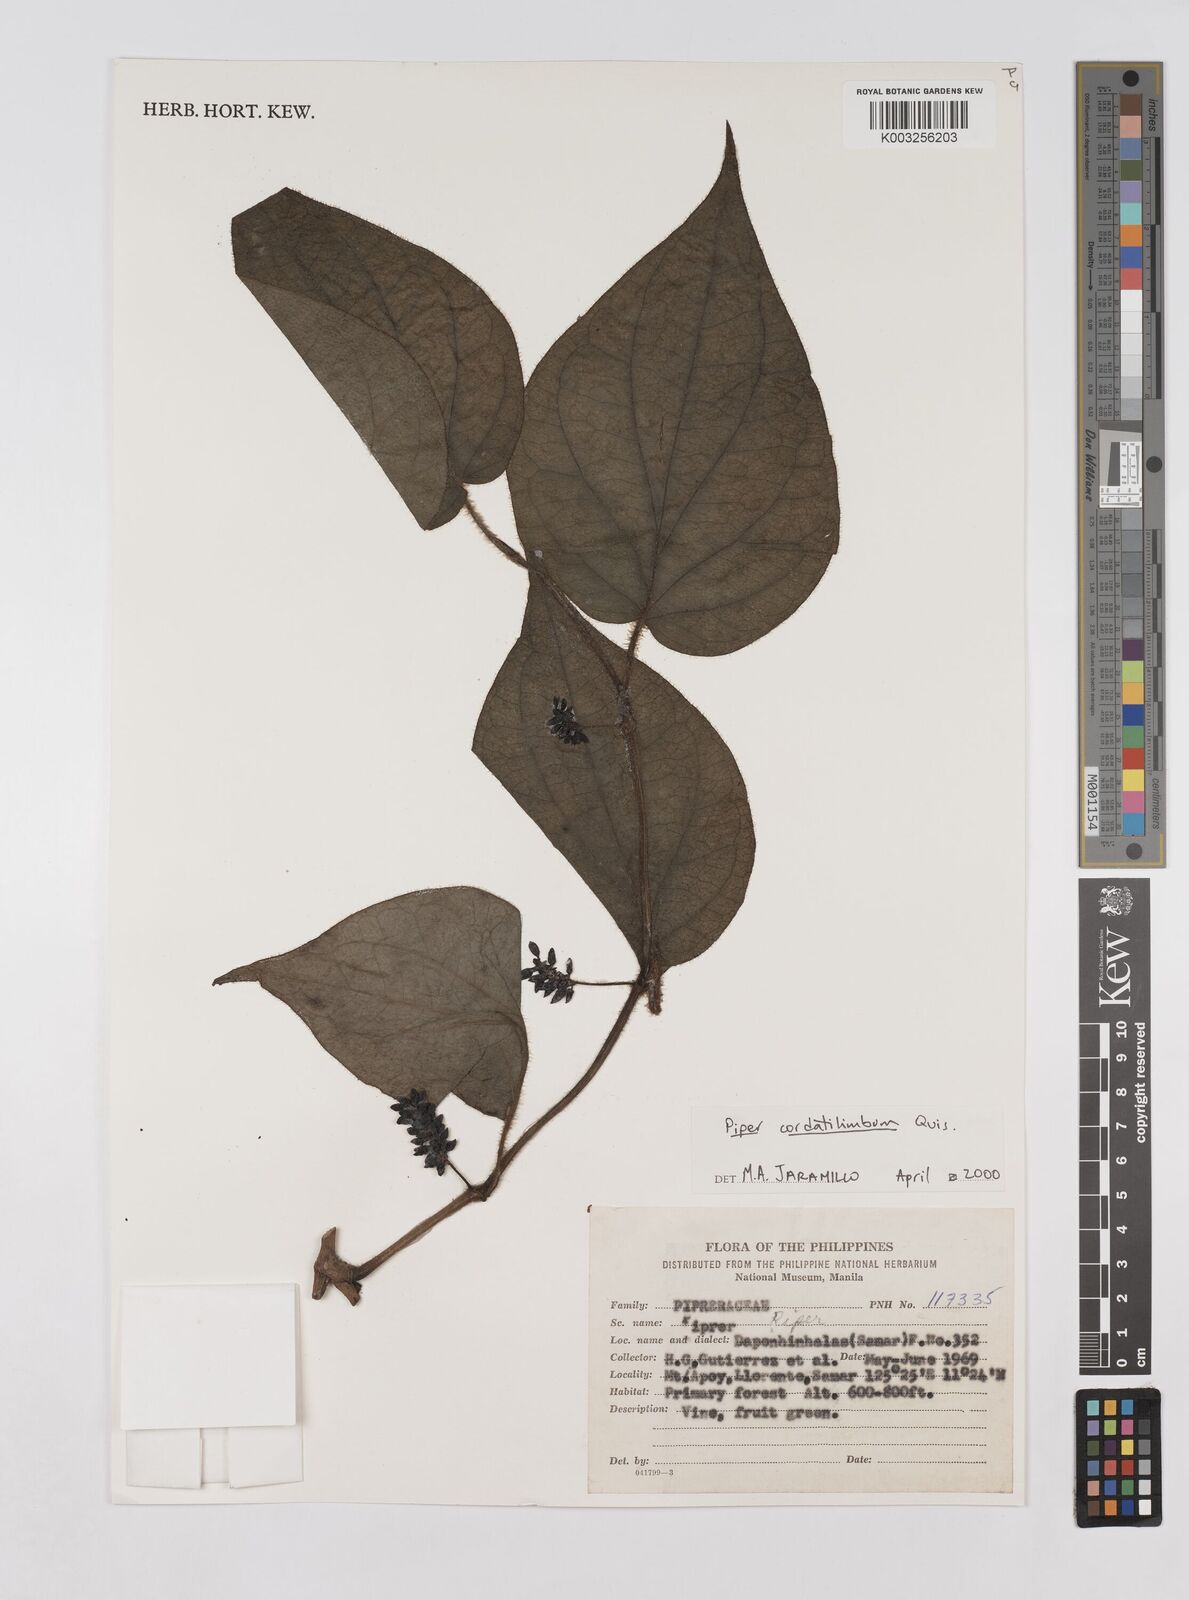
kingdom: Plantae
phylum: Tracheophyta
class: Magnoliopsida
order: Piperales
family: Piperaceae
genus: Piper
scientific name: Piper cordatilimbum
